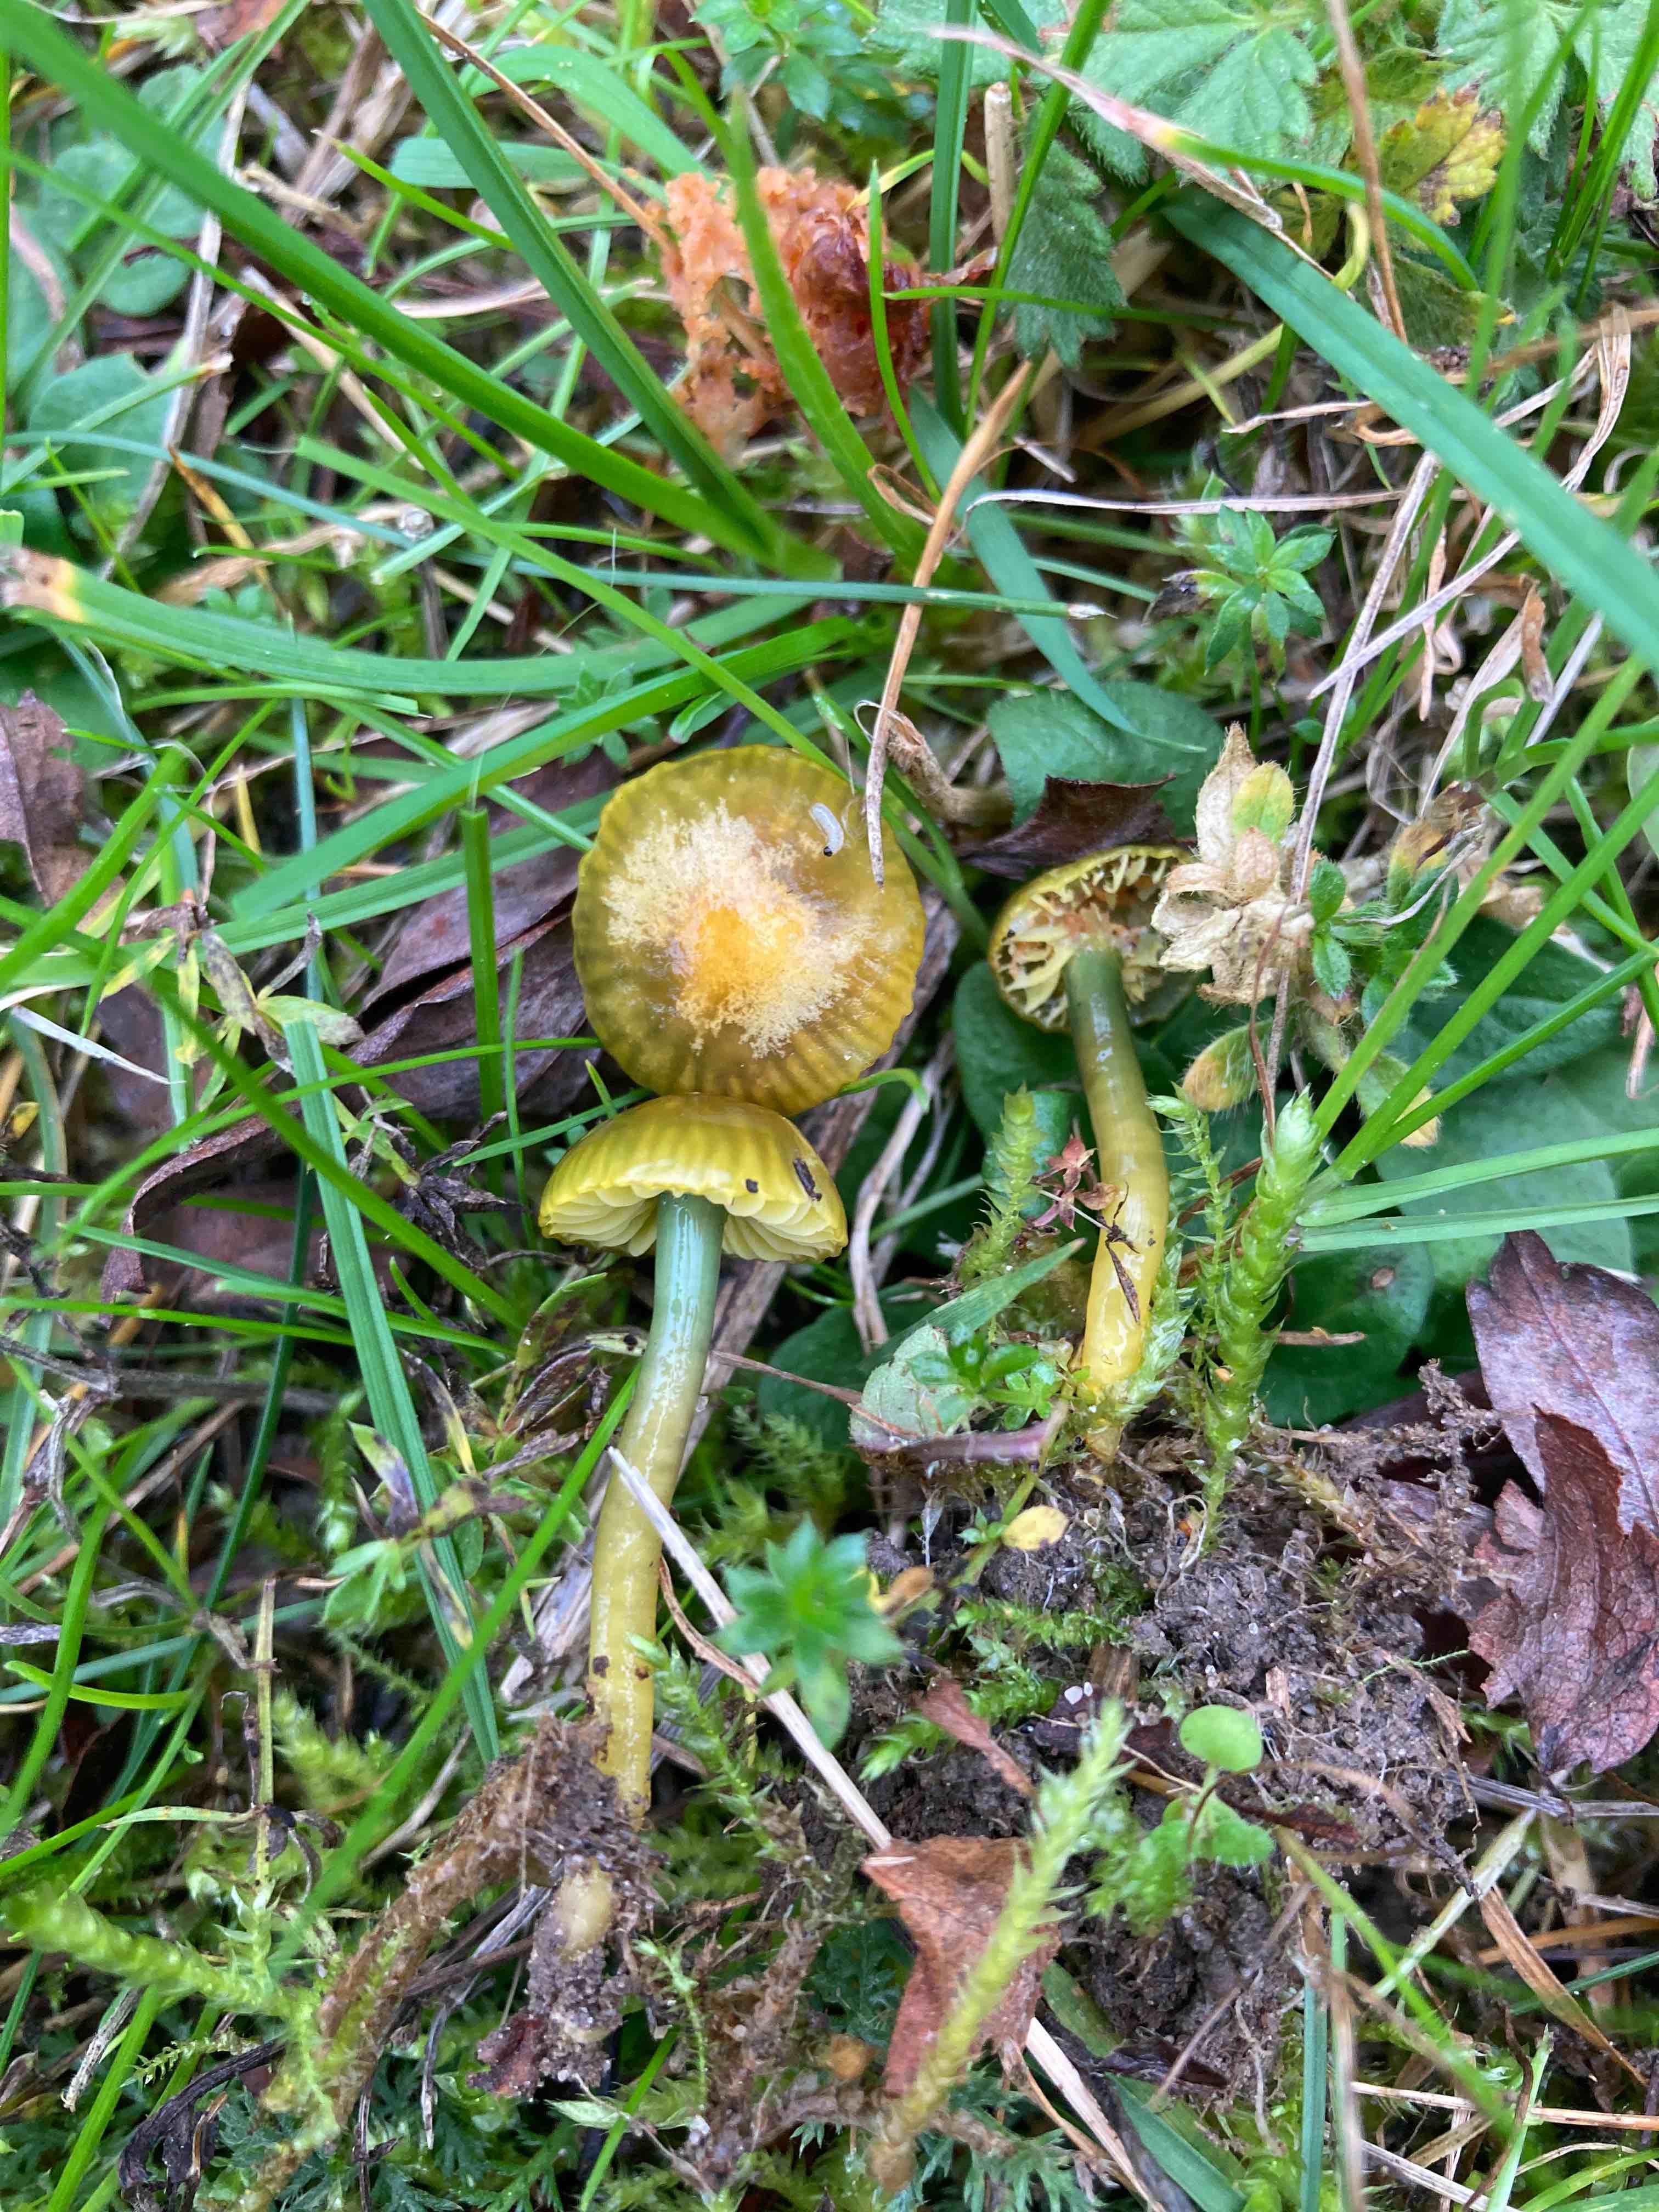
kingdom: Fungi
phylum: Basidiomycota
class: Agaricomycetes
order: Agaricales
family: Hygrophoraceae
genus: Gliophorus
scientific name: Gliophorus psittacinus
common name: papegøje-vokshat
